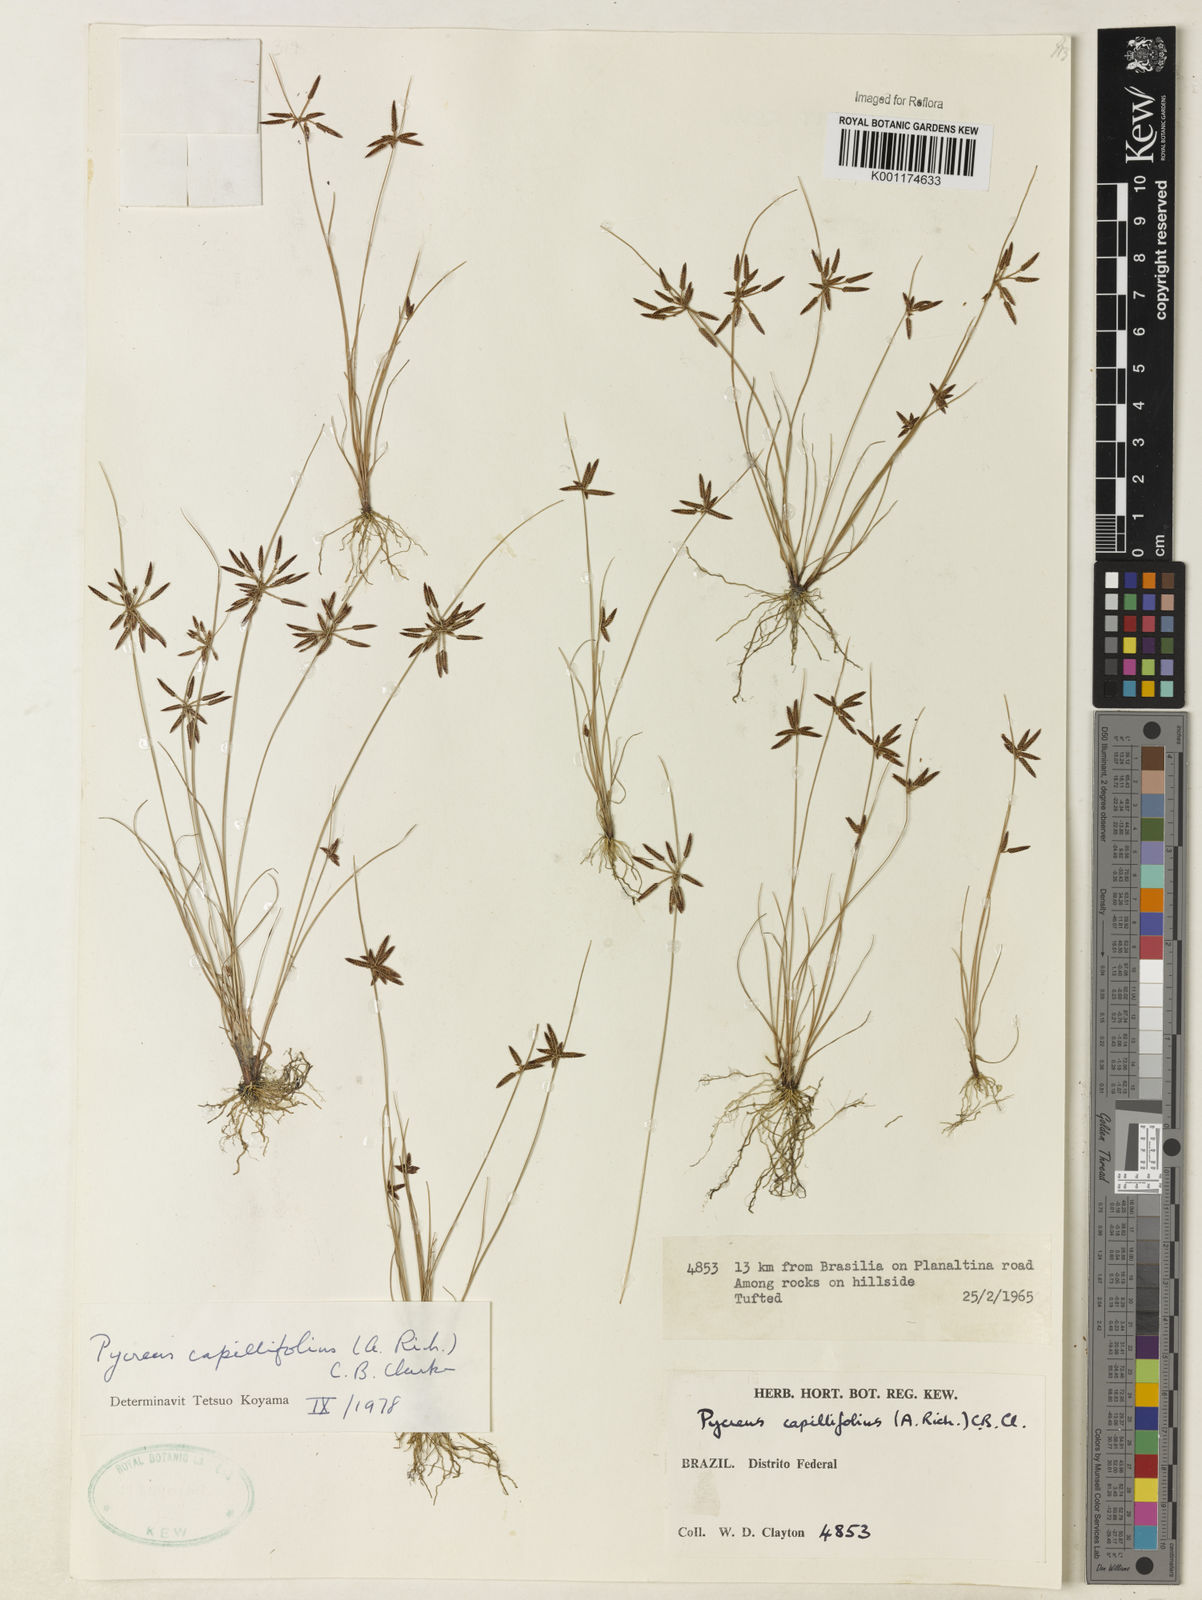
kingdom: Plantae
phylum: Tracheophyta
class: Liliopsida
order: Poales
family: Cyperaceae
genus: Cyperus
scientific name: Cyperus capillifolius
